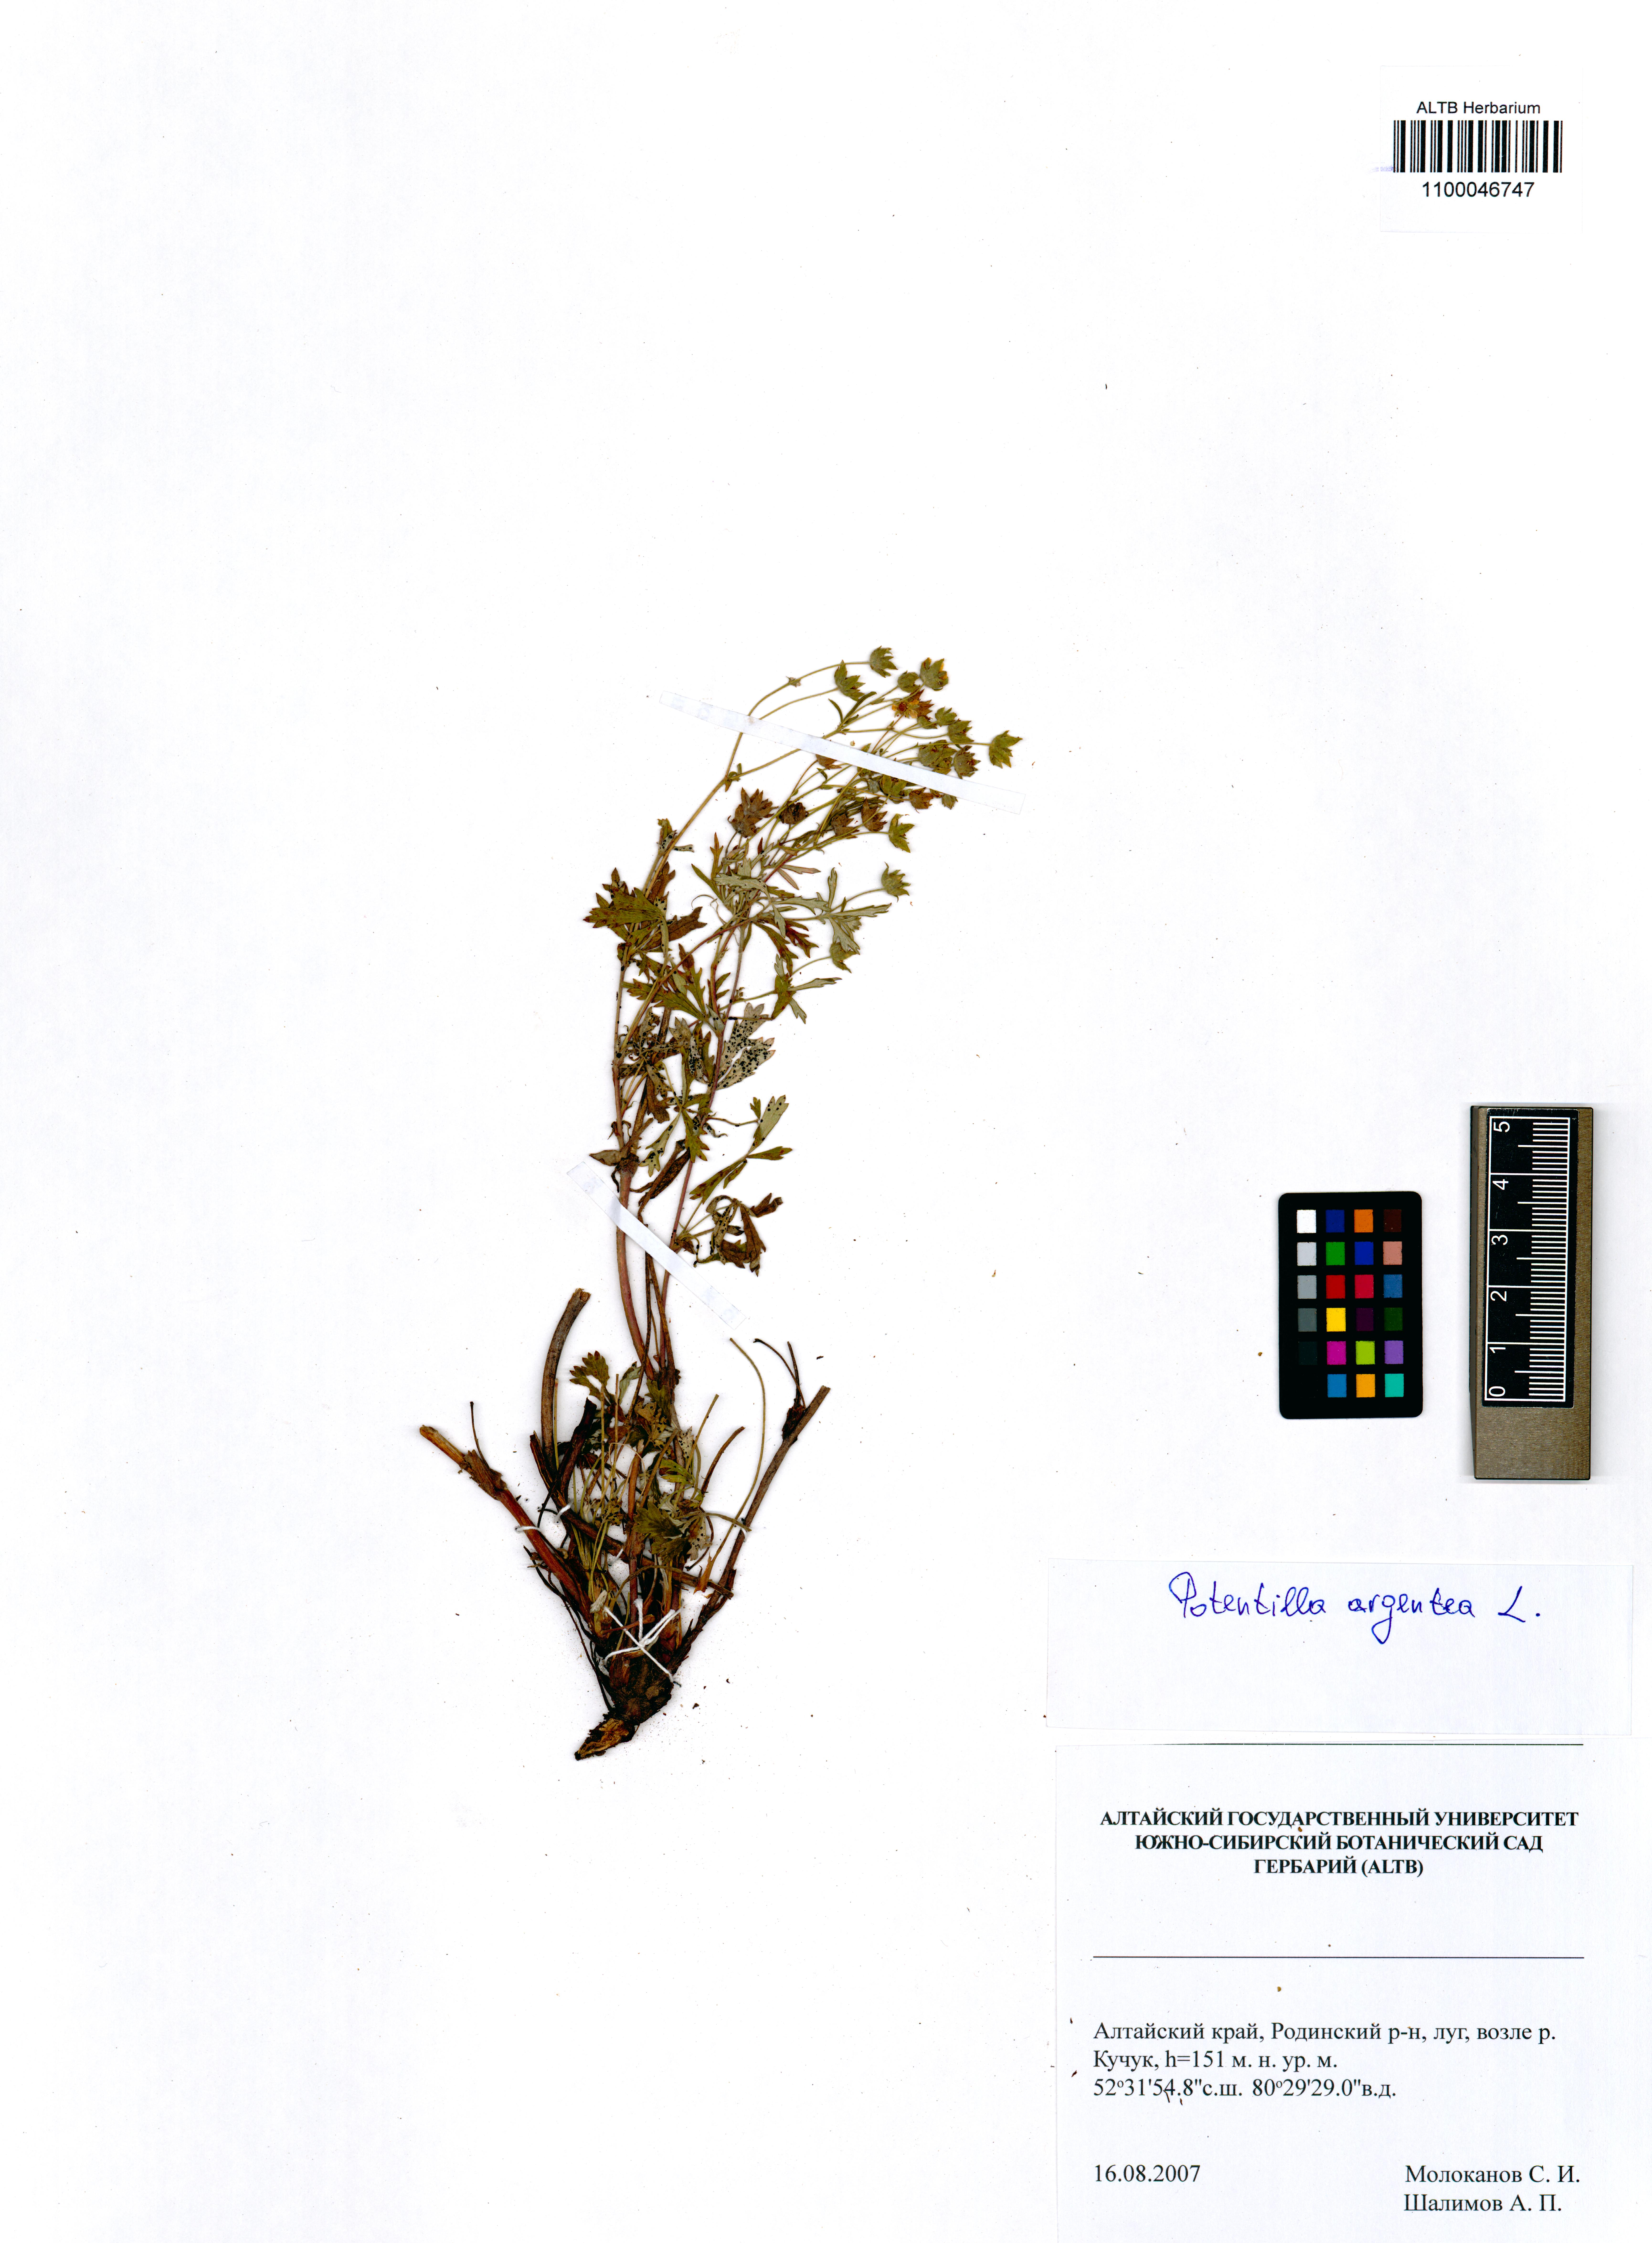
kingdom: Plantae
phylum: Tracheophyta
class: Magnoliopsida
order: Rosales
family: Rosaceae
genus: Potentilla
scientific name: Potentilla argentea
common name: Hoary cinquefoil
